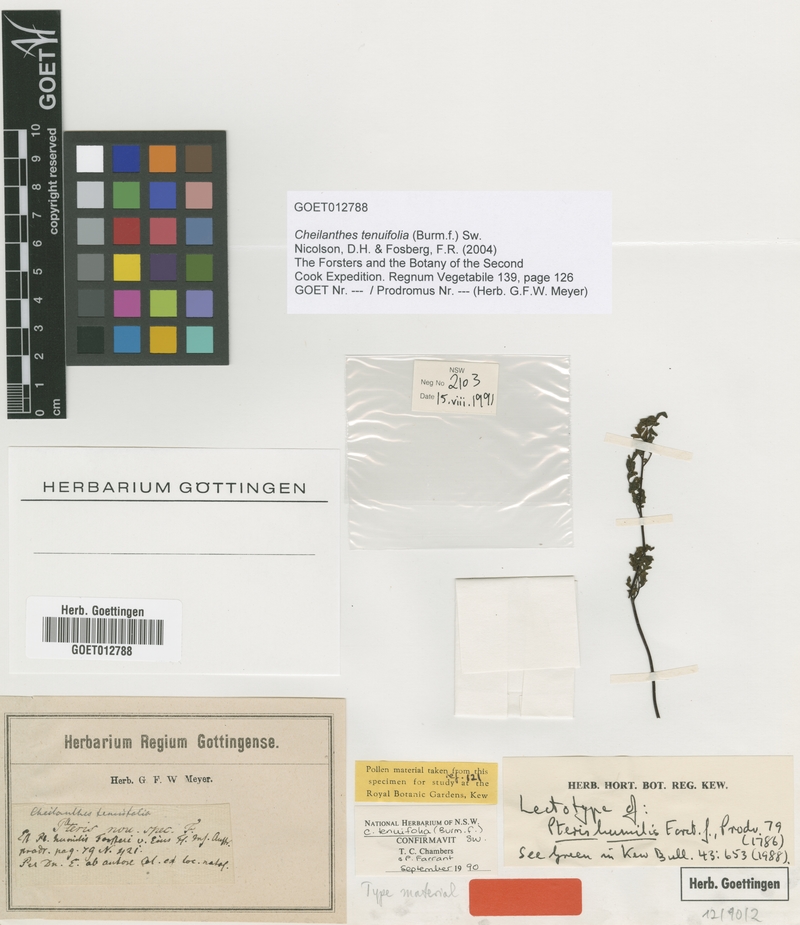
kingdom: Plantae
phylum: Tracheophyta
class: Polypodiopsida
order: Polypodiales
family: Pteridaceae
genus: Cheilanthes
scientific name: Cheilanthes tenuifolia
